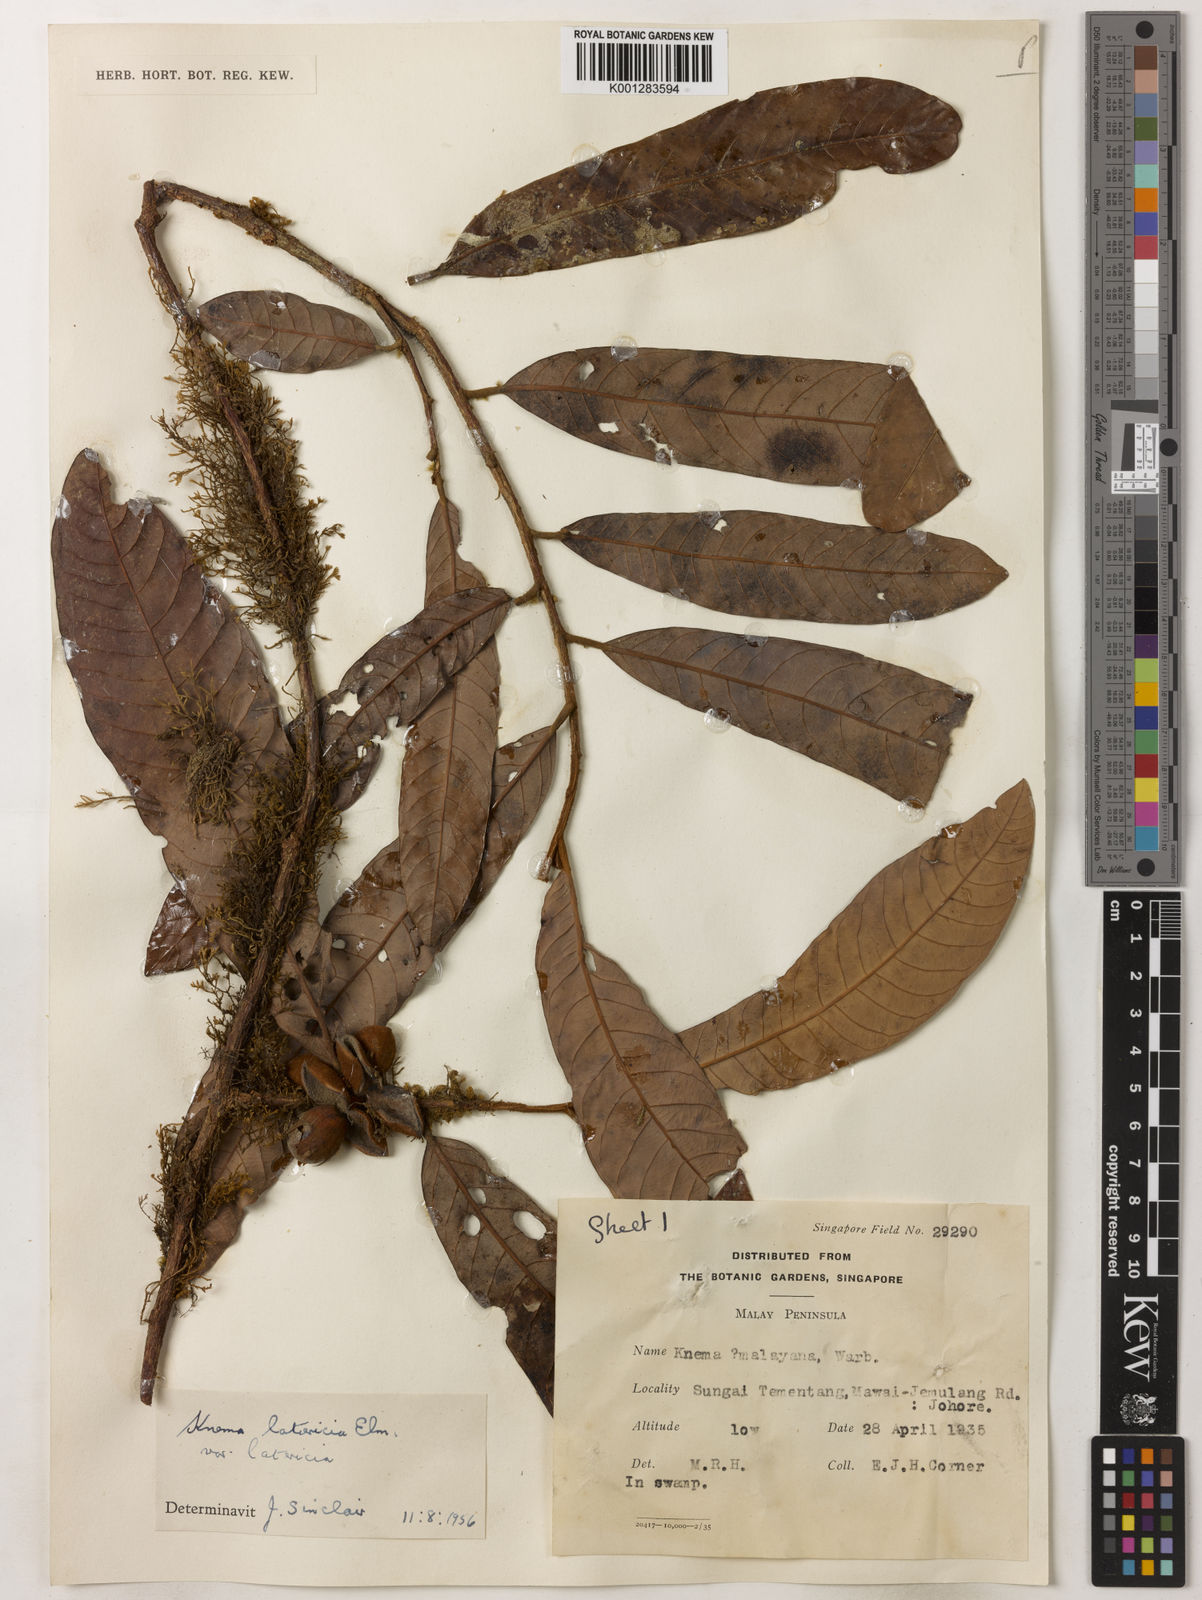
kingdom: Plantae
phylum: Tracheophyta
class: Magnoliopsida
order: Magnoliales
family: Myristicaceae
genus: Knema
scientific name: Knema latericia
